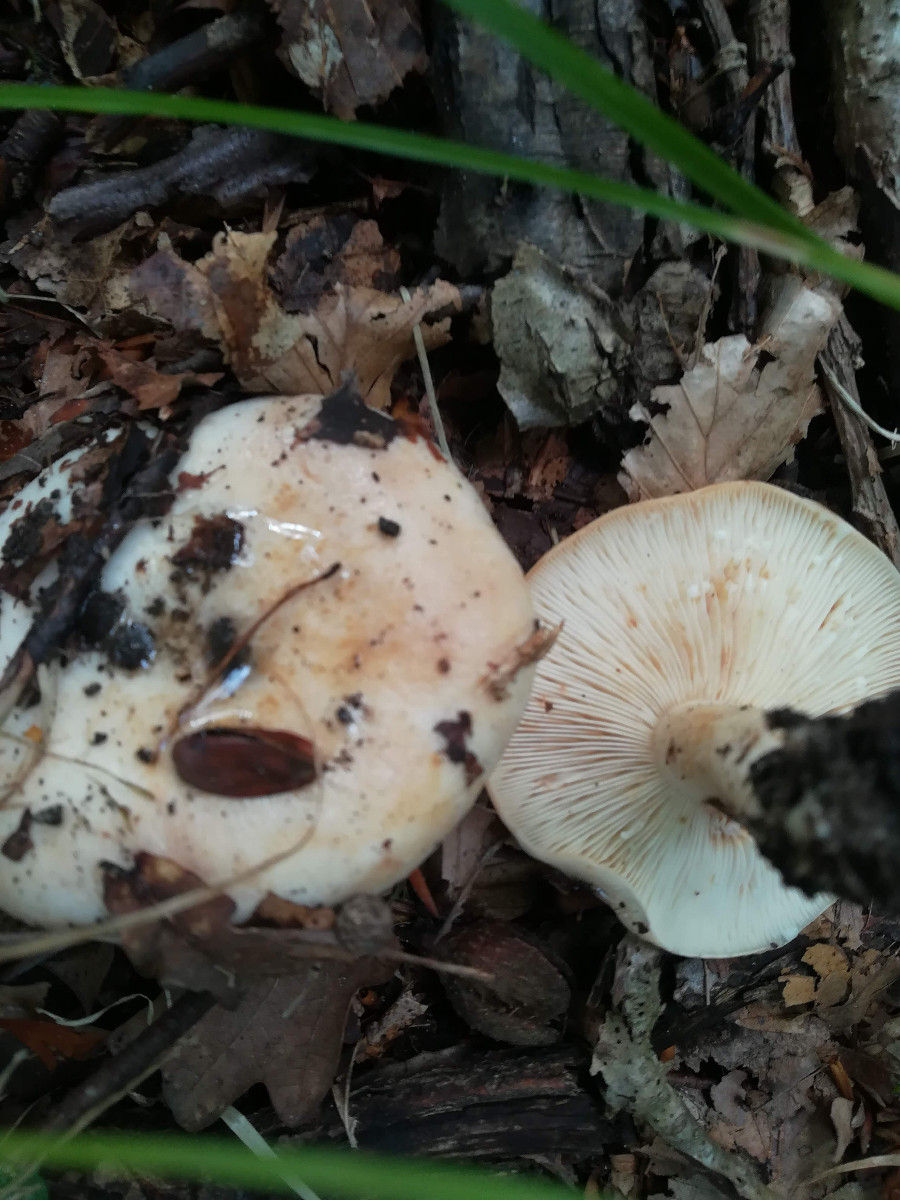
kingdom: Fungi
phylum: Basidiomycota
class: Agaricomycetes
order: Russulales
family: Russulaceae
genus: Lactarius
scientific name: Lactarius pallidus
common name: bleg mælkehat
